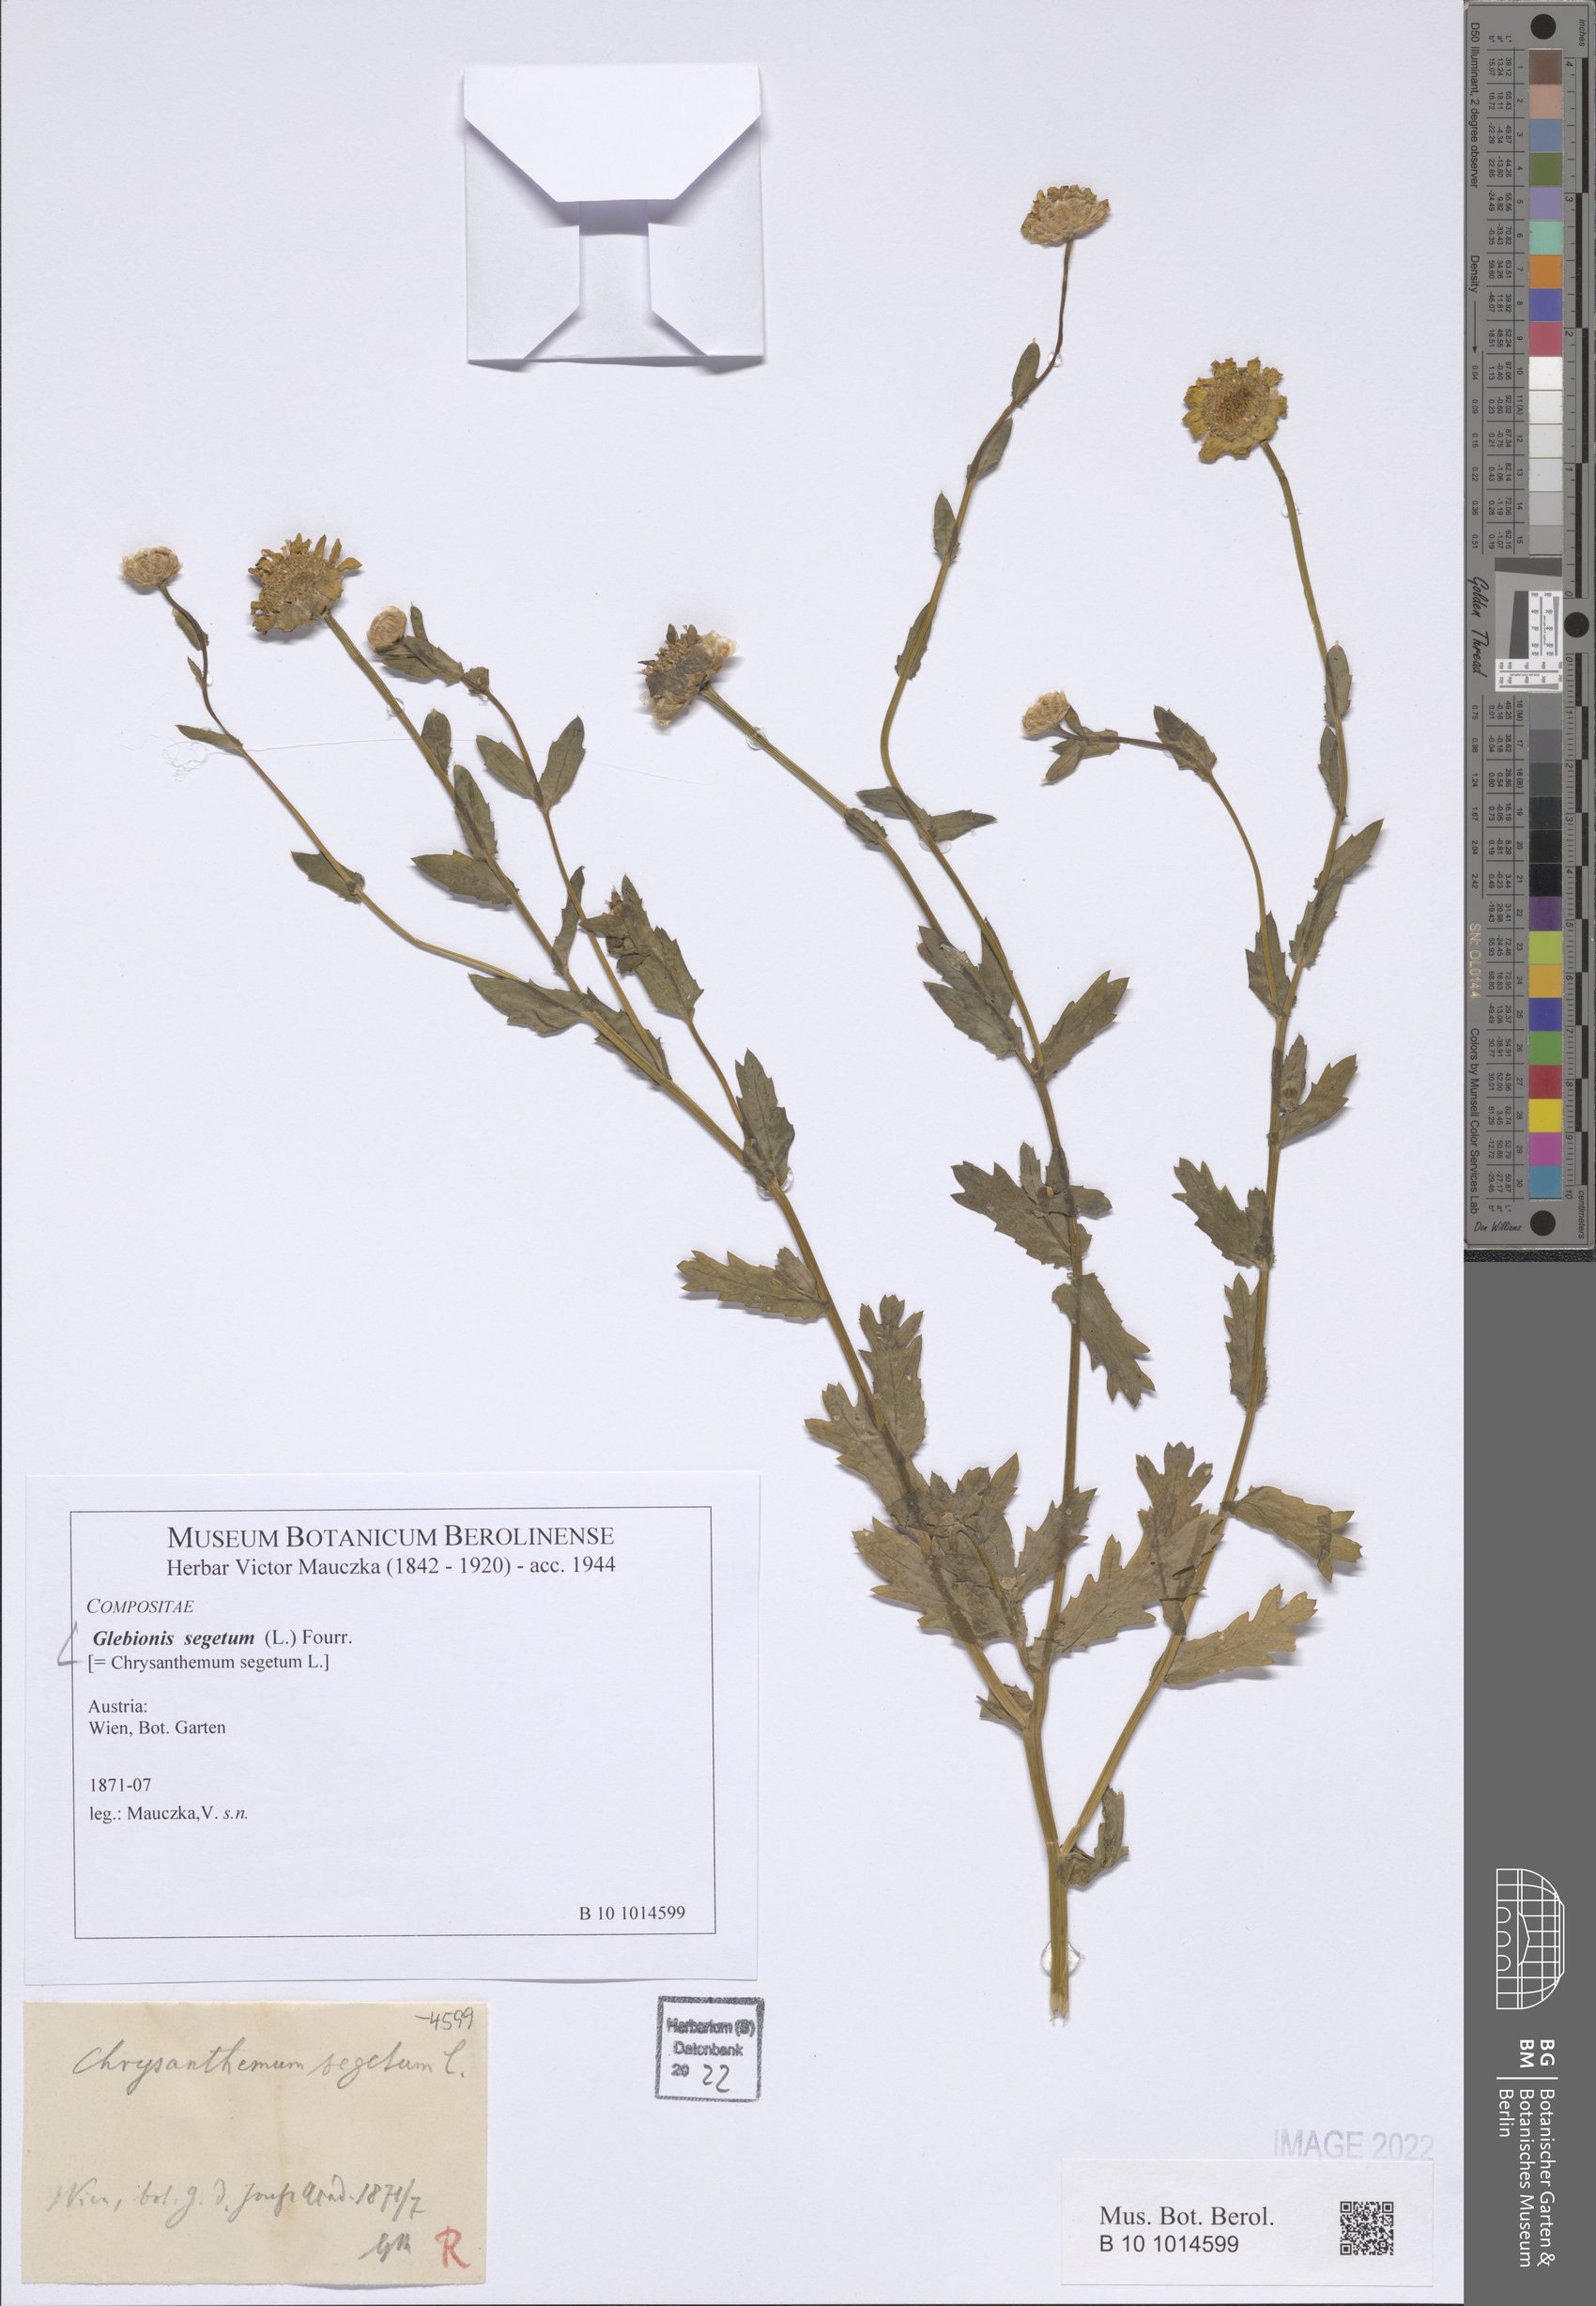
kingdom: Plantae
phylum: Tracheophyta
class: Magnoliopsida
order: Asterales
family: Asteraceae
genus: Glebionis
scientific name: Glebionis segetum
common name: Corndaisy
